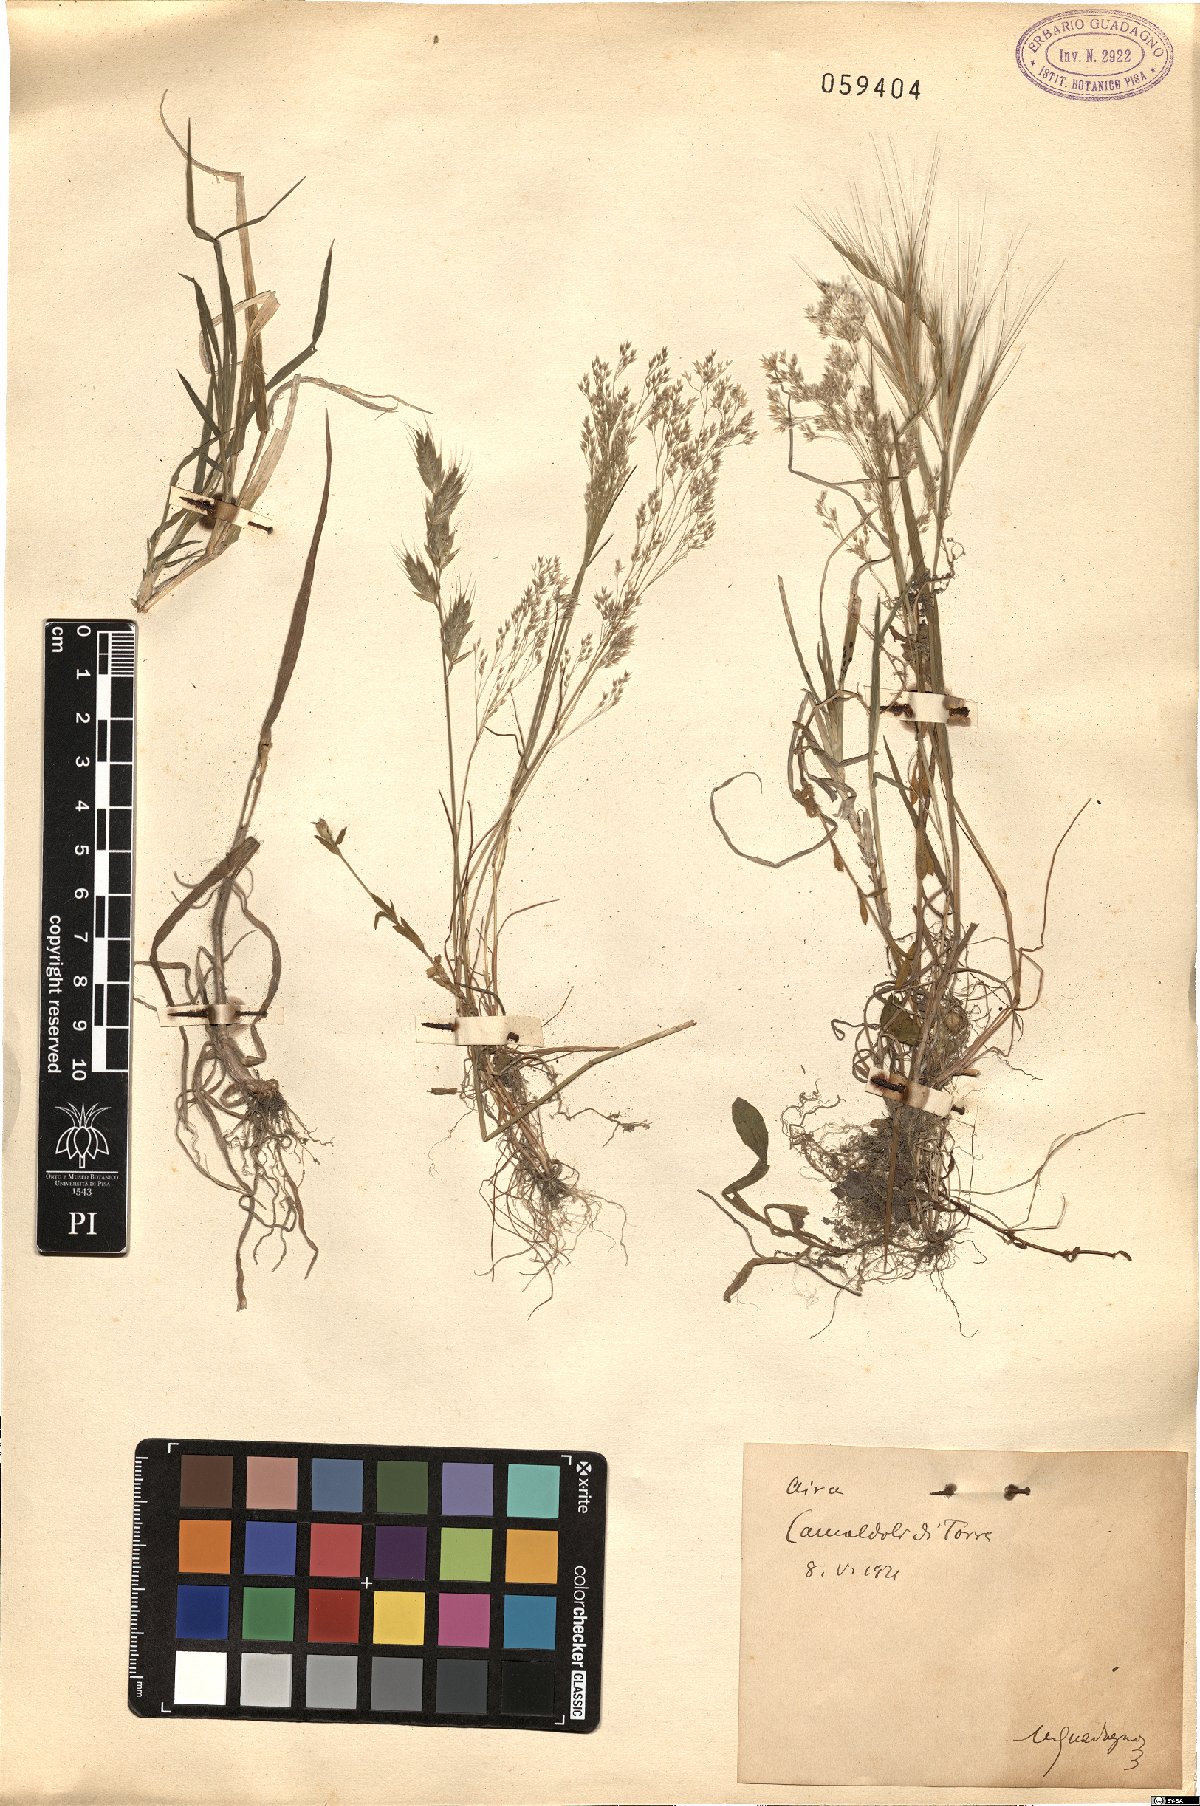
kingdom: Plantae
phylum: Tracheophyta
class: Liliopsida
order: Poales
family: Poaceae
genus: Aira
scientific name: Aira
